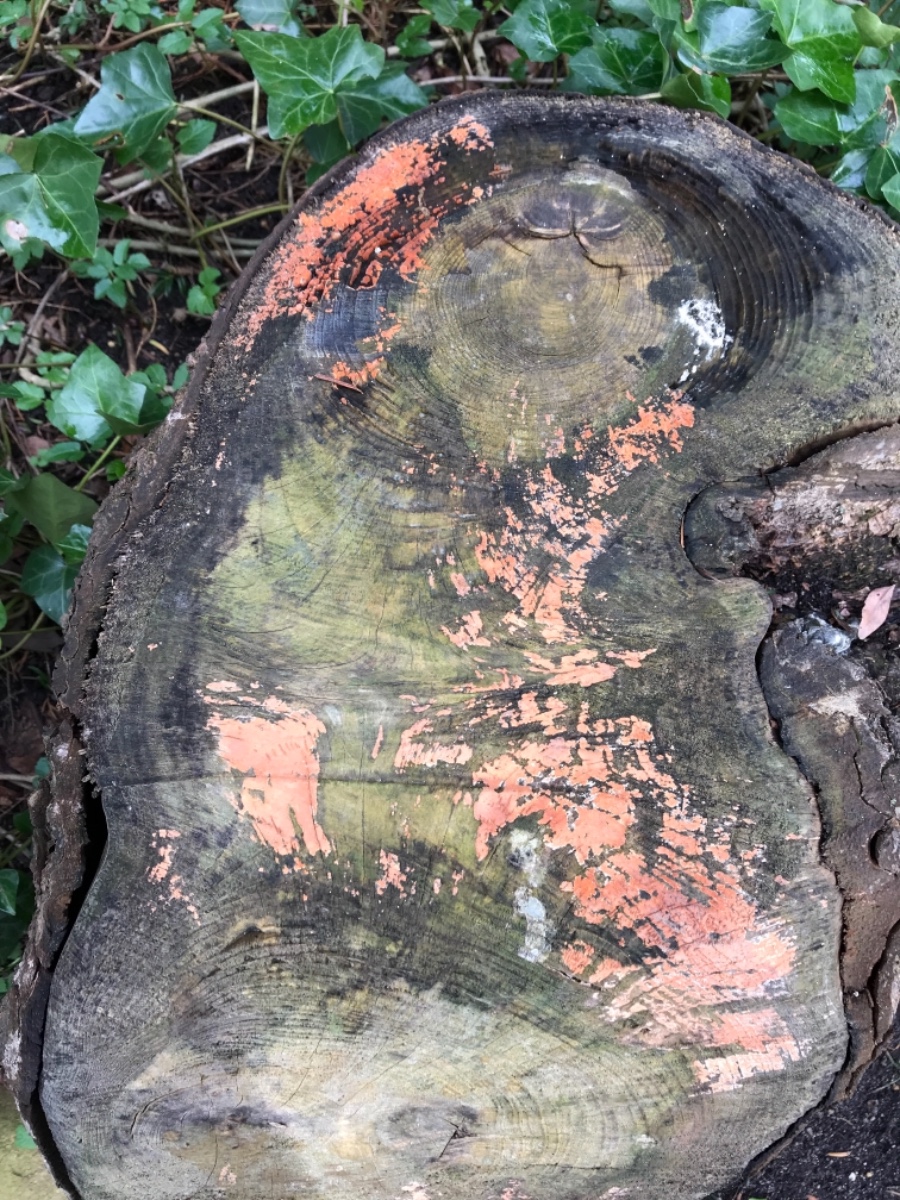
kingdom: Fungi
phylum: Basidiomycota
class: Agaricomycetes
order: Russulales
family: Peniophoraceae
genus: Peniophora
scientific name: Peniophora incarnata
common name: laksefarvet voksskind
